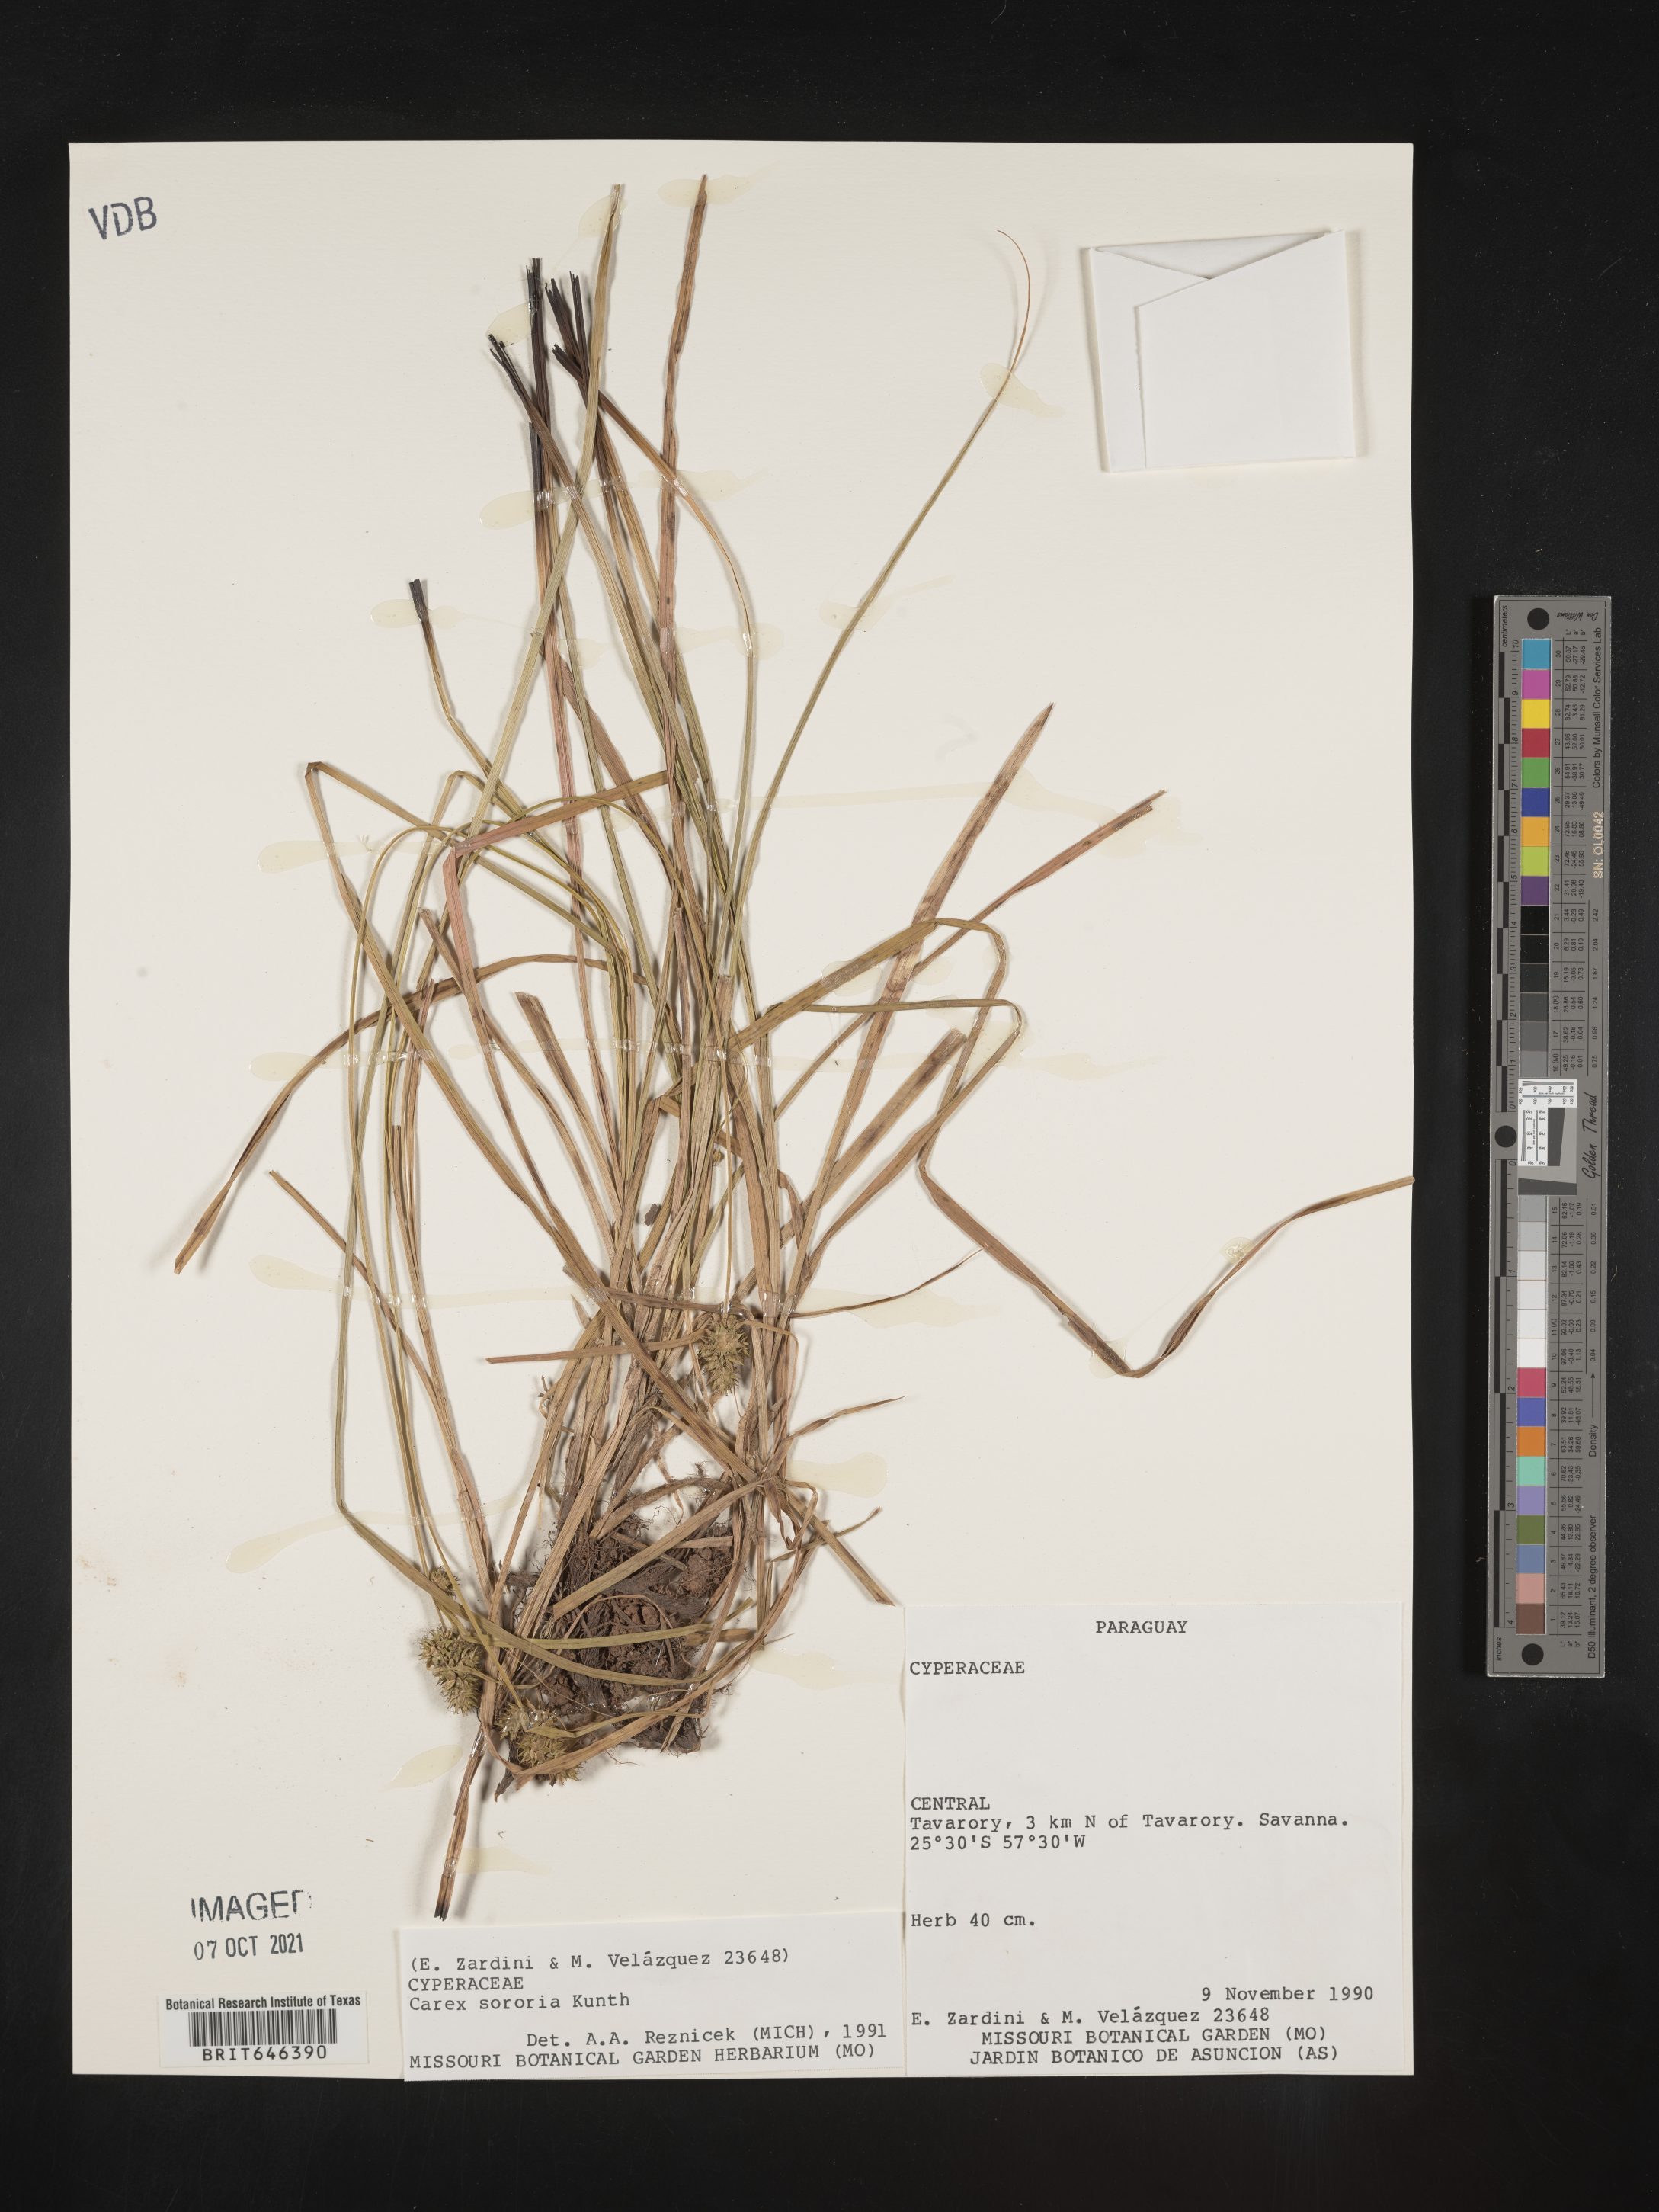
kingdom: Plantae
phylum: Tracheophyta
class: Liliopsida
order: Poales
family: Cyperaceae
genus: Carex
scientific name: Carex cespitosa
